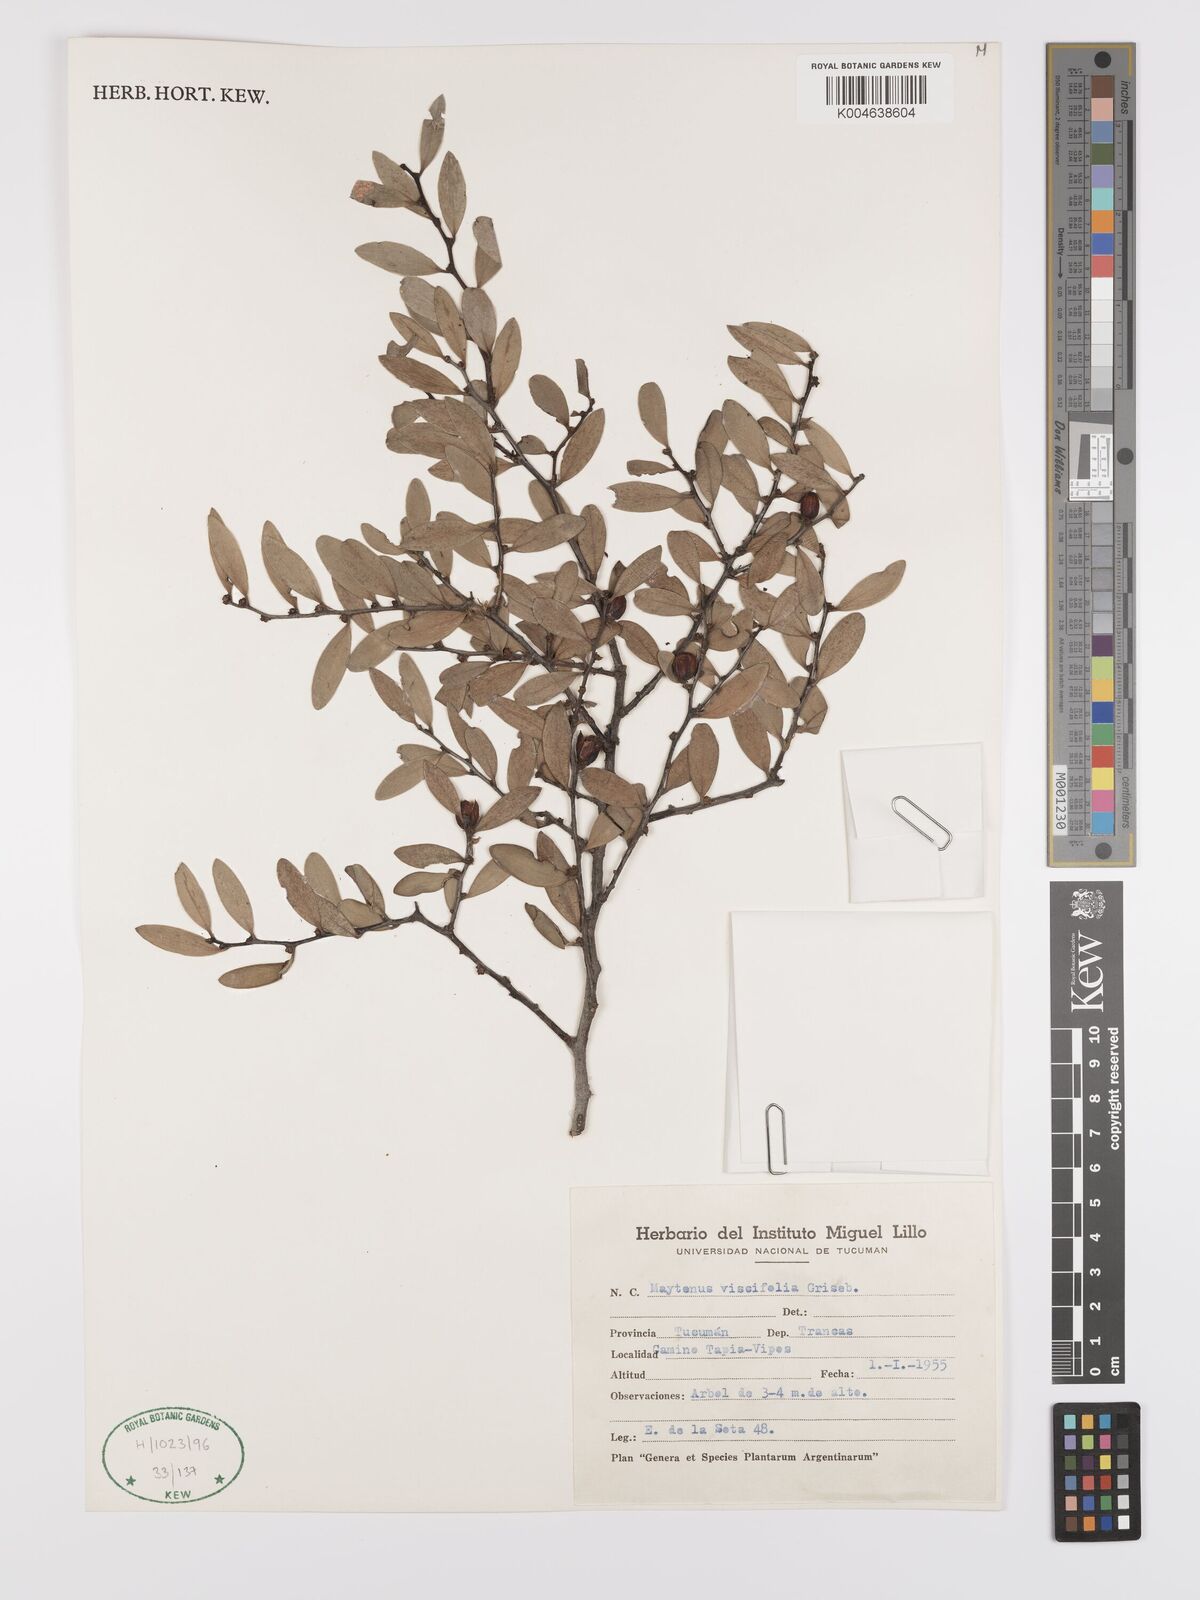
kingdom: Plantae
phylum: Tracheophyta
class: Magnoliopsida
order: Celastrales
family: Celastraceae
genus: Tricerma
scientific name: Tricerma viscifolium
